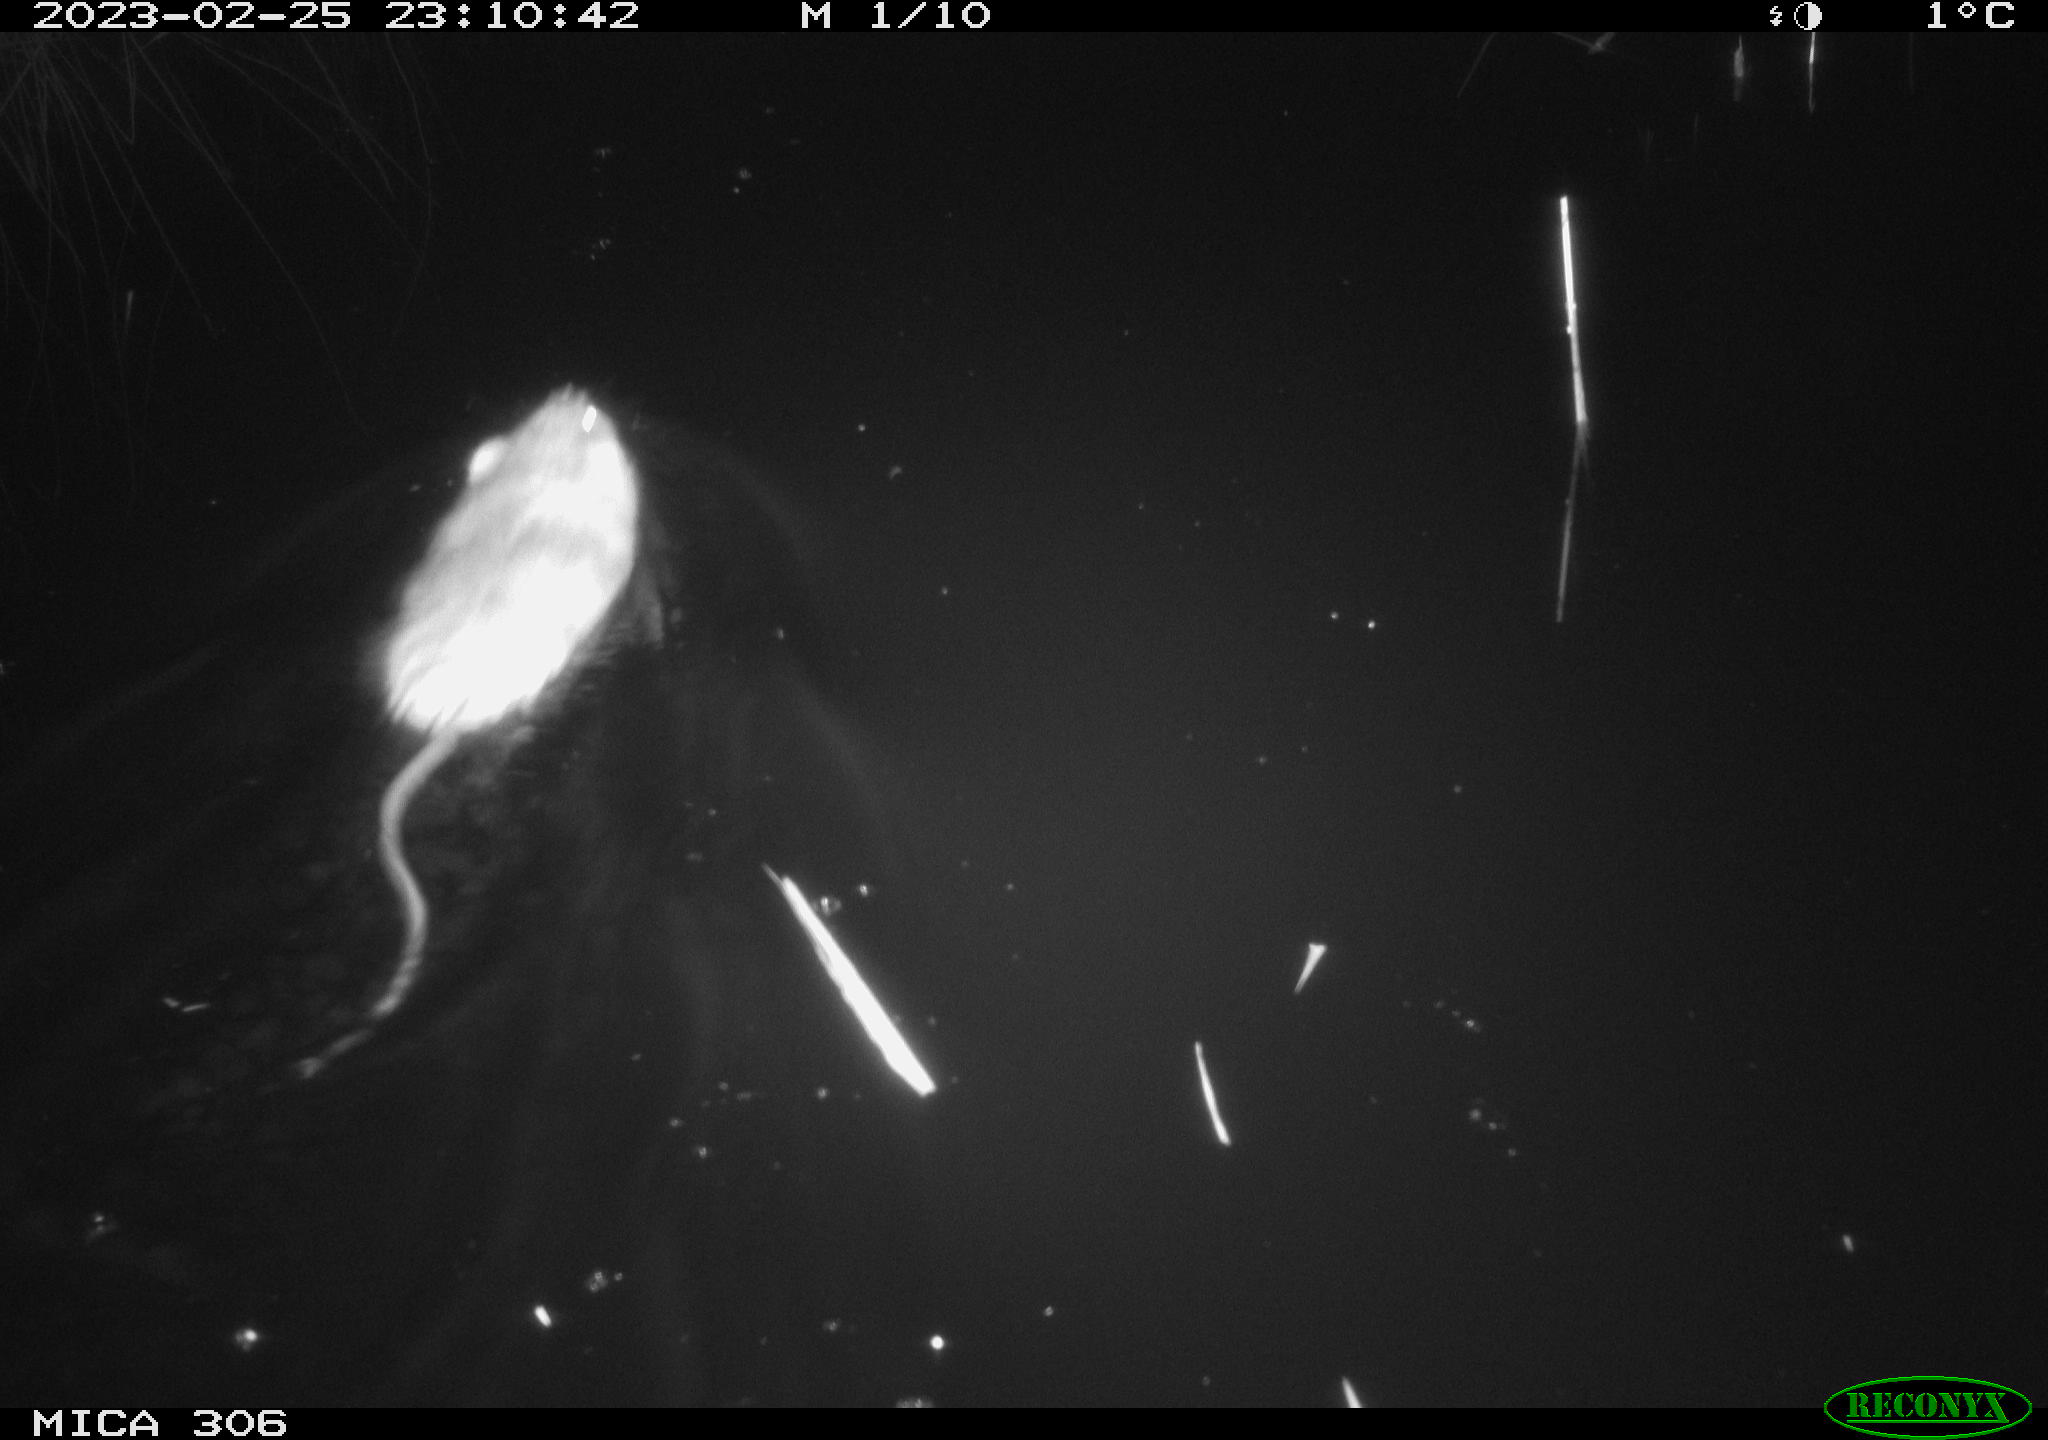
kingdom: Animalia
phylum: Chordata
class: Mammalia
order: Rodentia
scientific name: Rodentia
